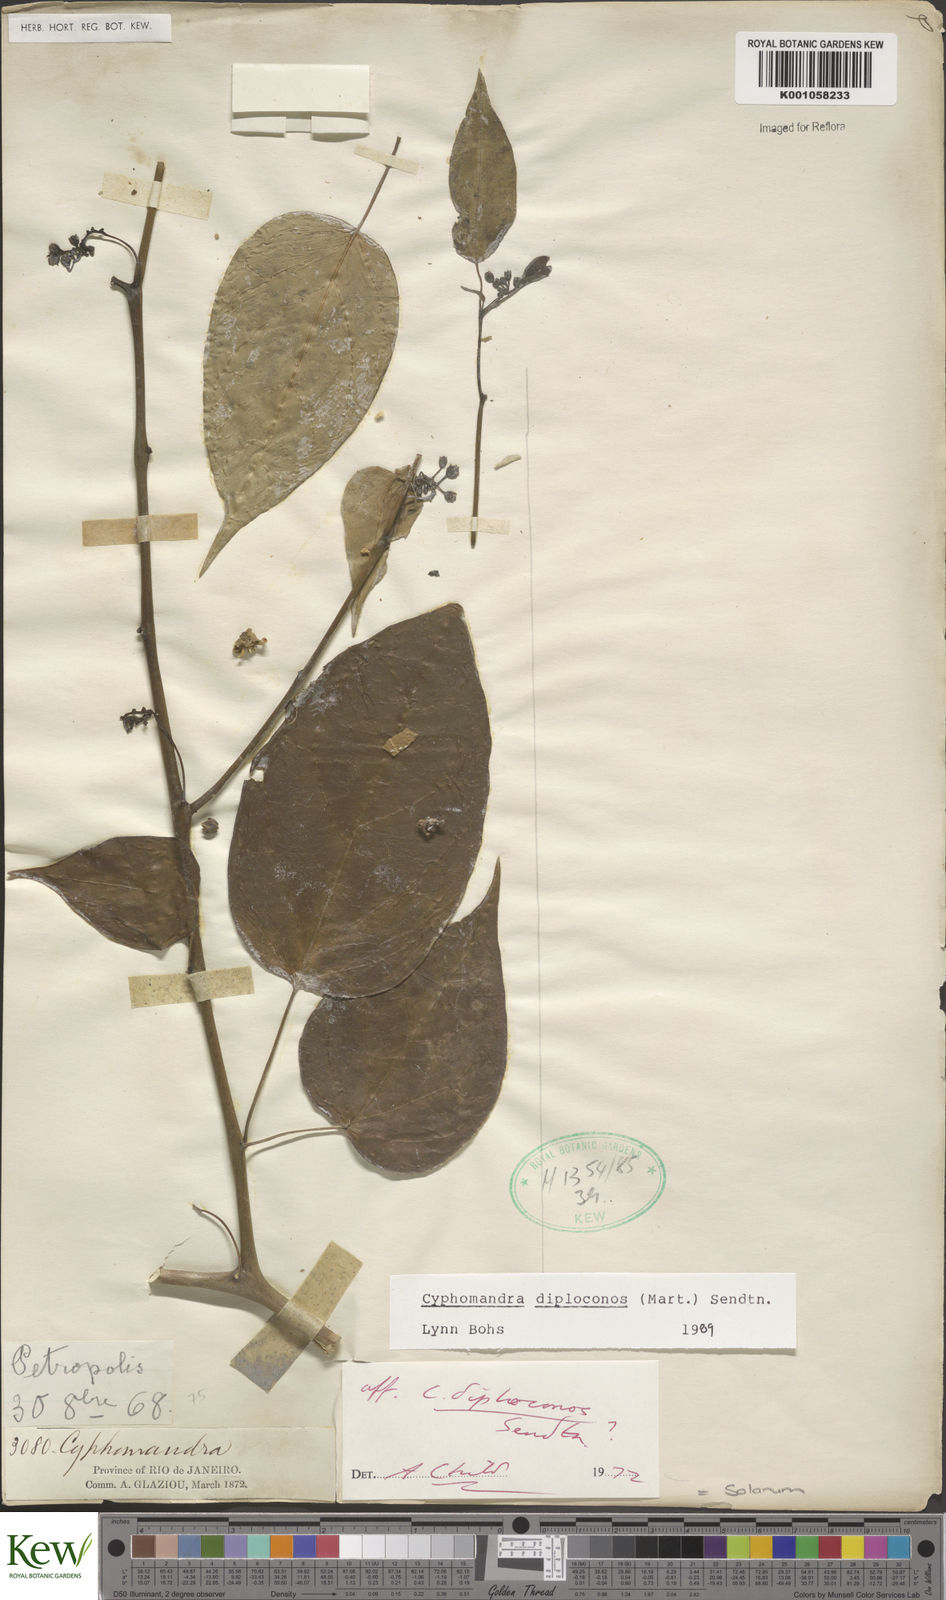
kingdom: Plantae
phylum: Tracheophyta
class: Magnoliopsida
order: Solanales
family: Solanaceae
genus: Solanum
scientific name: Solanum diploconos
